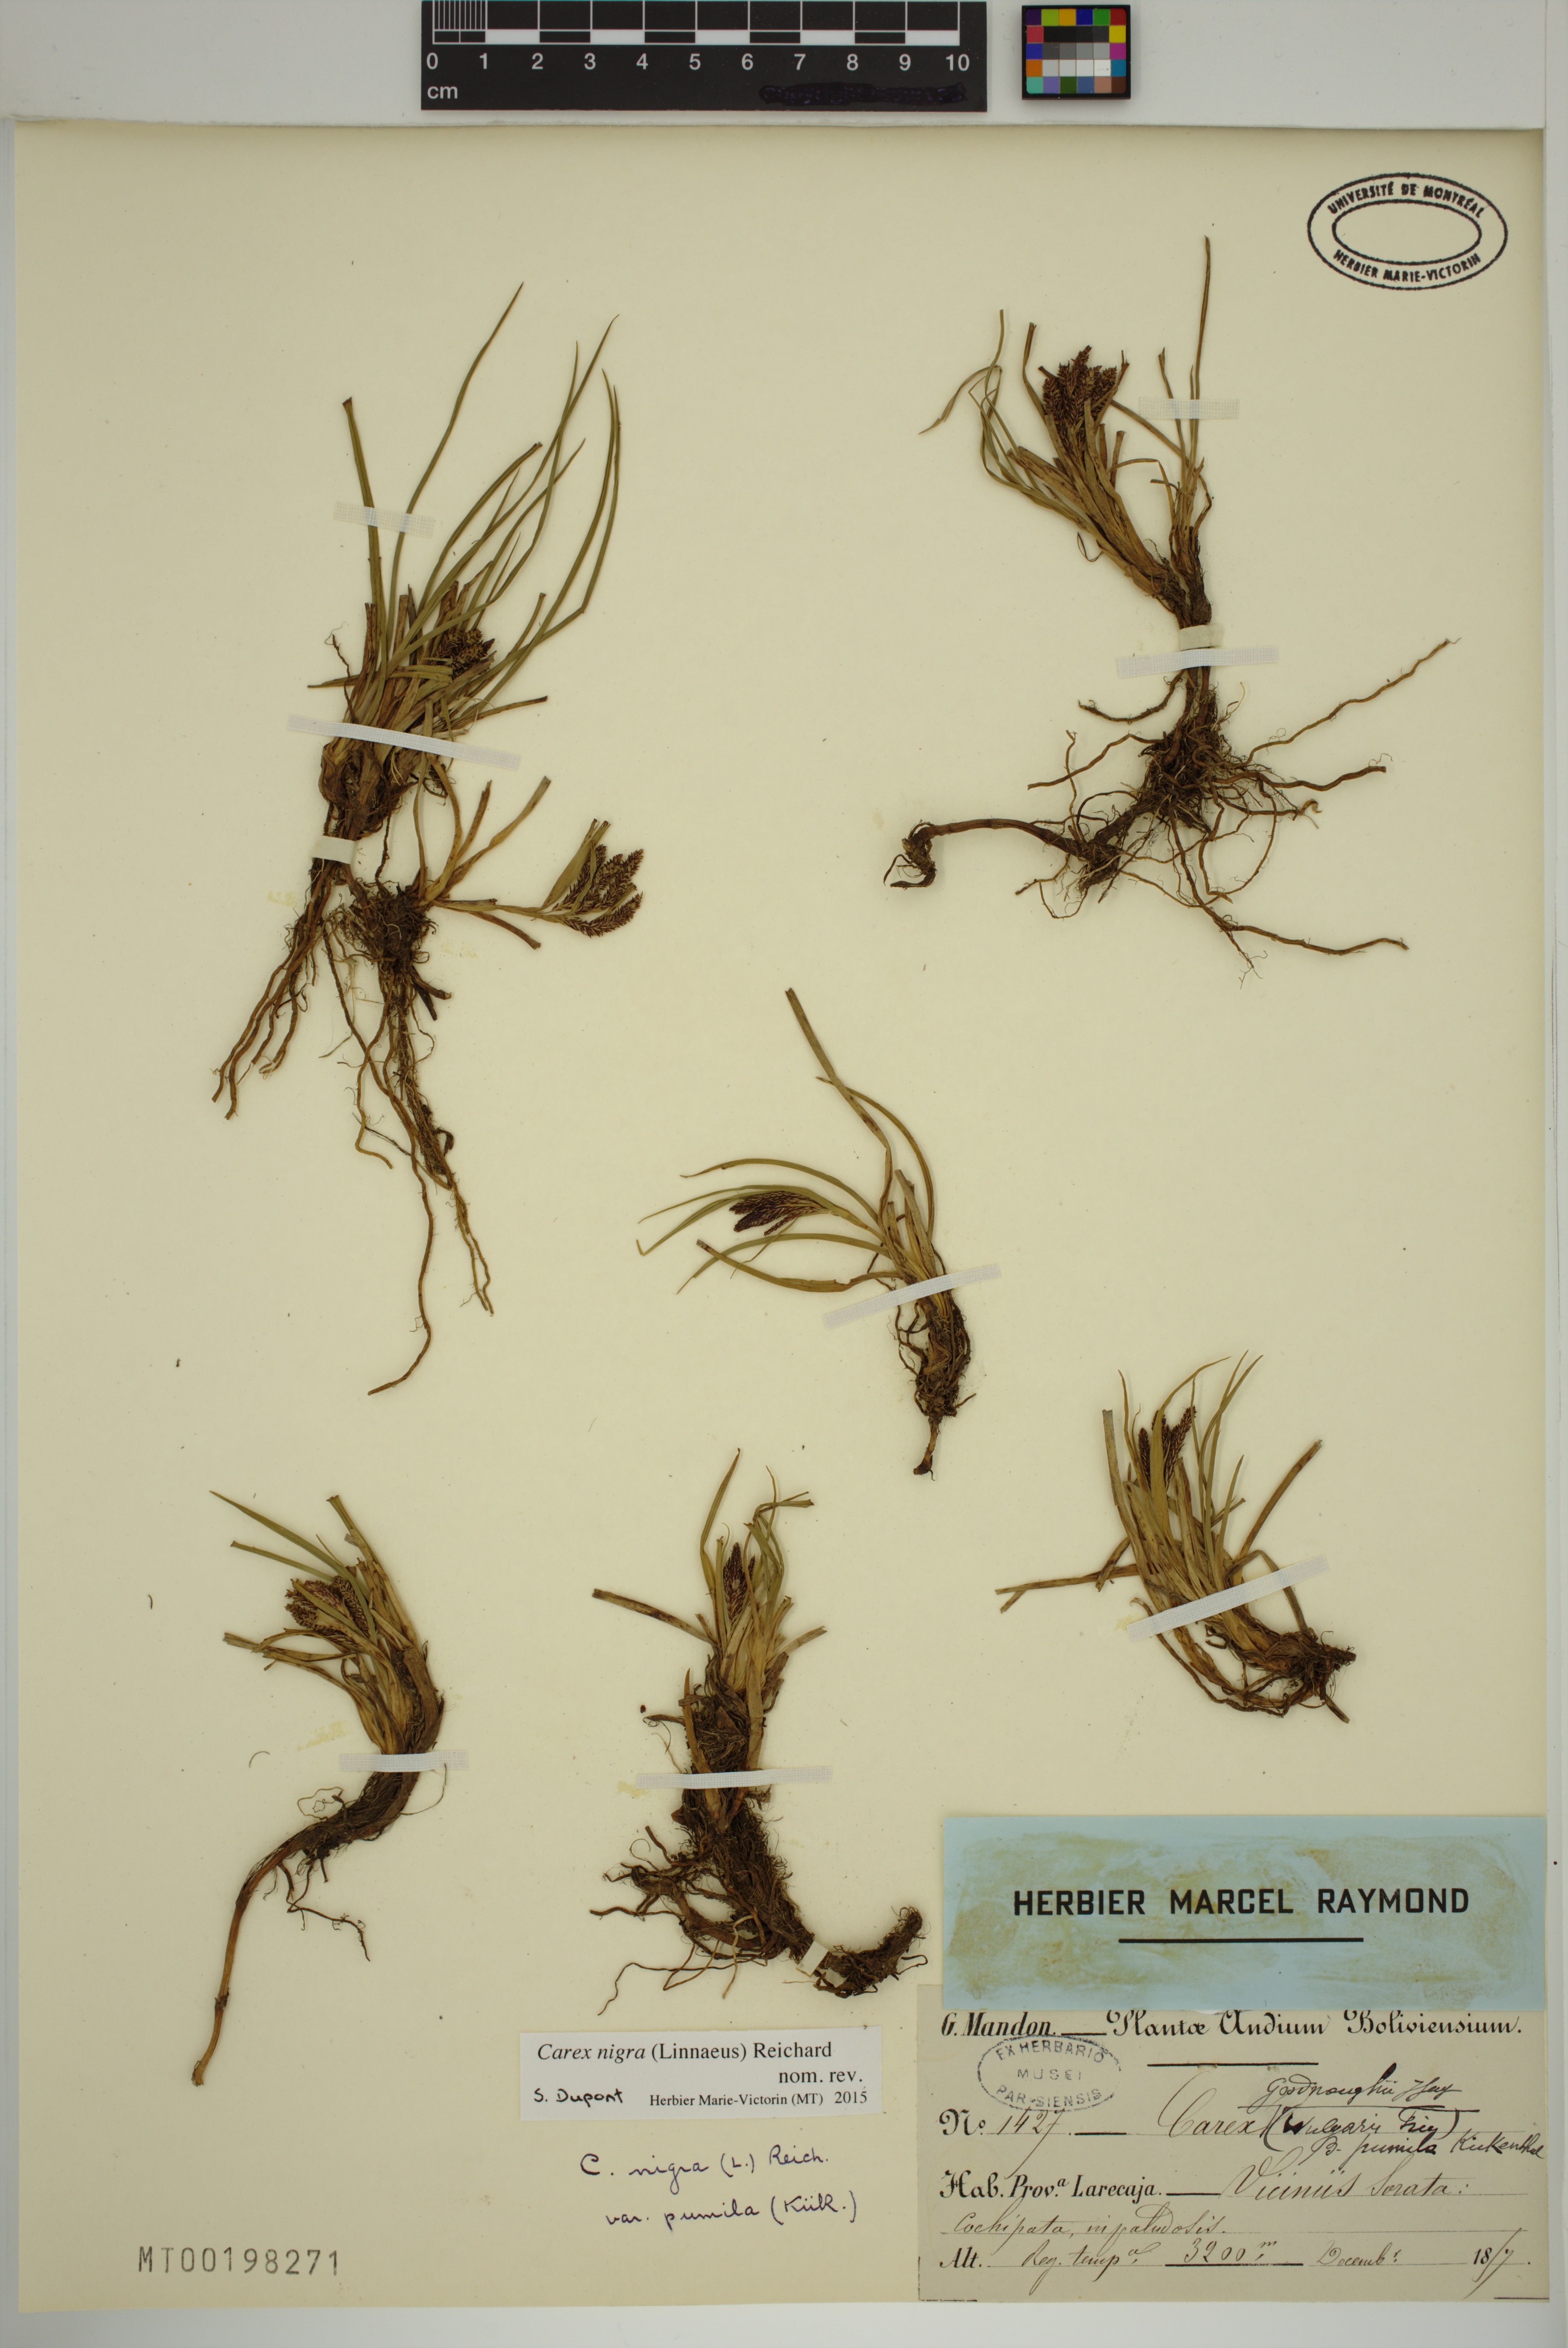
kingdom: Plantae
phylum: Tracheophyta
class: Liliopsida
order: Poales
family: Cyperaceae
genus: Carex
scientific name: Carex nigra
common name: Common sedge
